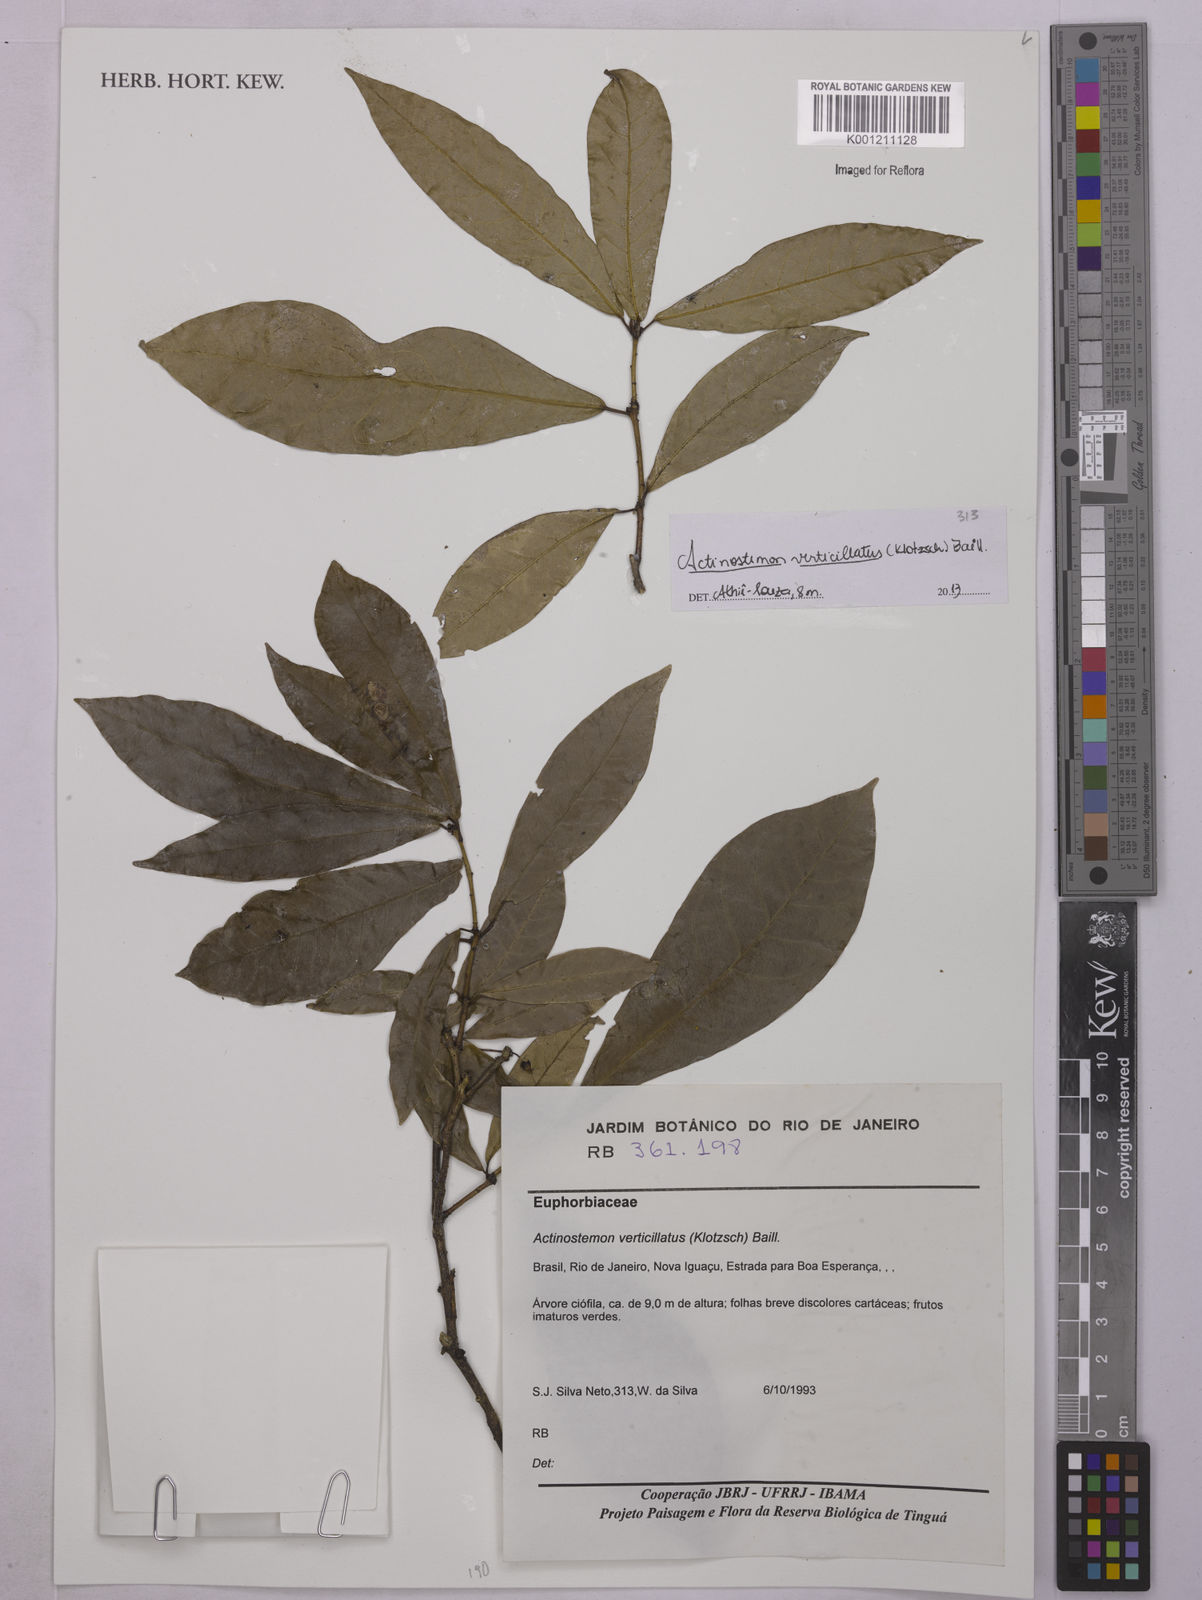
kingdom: Plantae
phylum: Tracheophyta
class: Magnoliopsida
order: Malpighiales
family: Euphorbiaceae
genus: Actinostemon
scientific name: Actinostemon verticillatus
